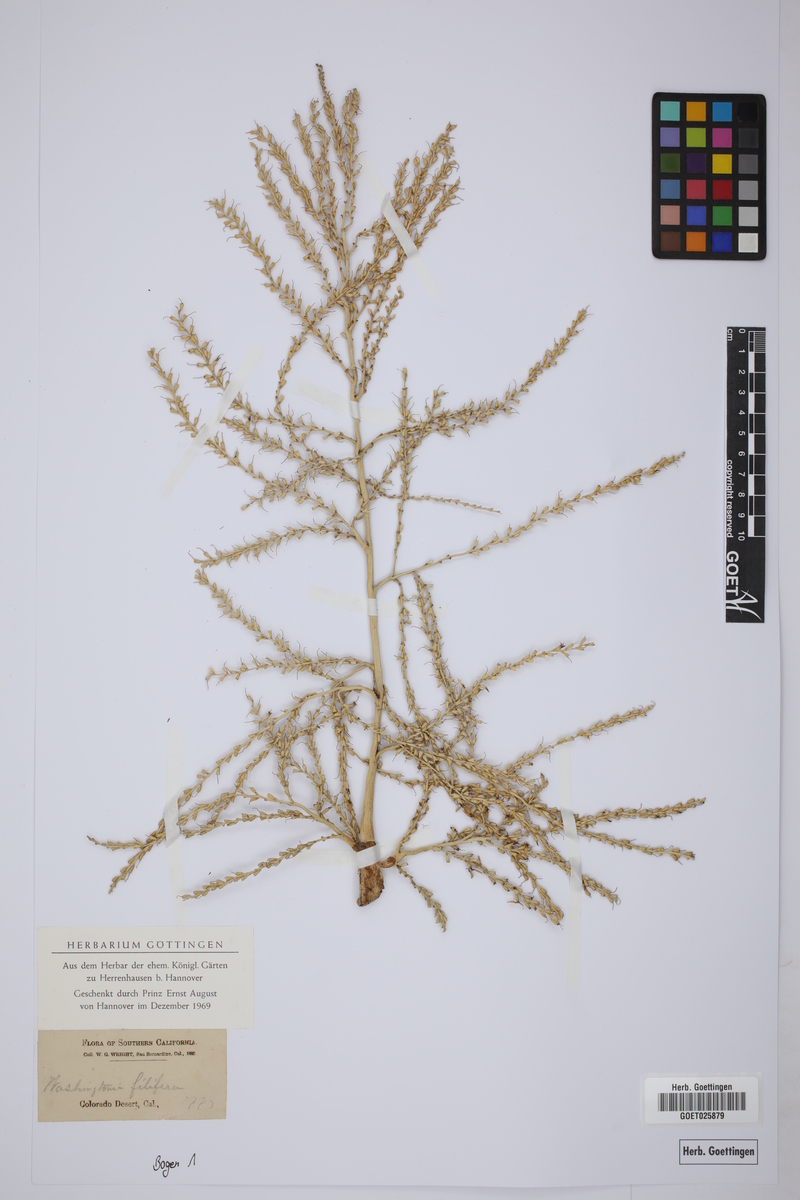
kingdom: Plantae
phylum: Tracheophyta
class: Liliopsida
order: Arecales
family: Arecaceae
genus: Washingtonia
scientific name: Washingtonia filifera
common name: California fan palm
